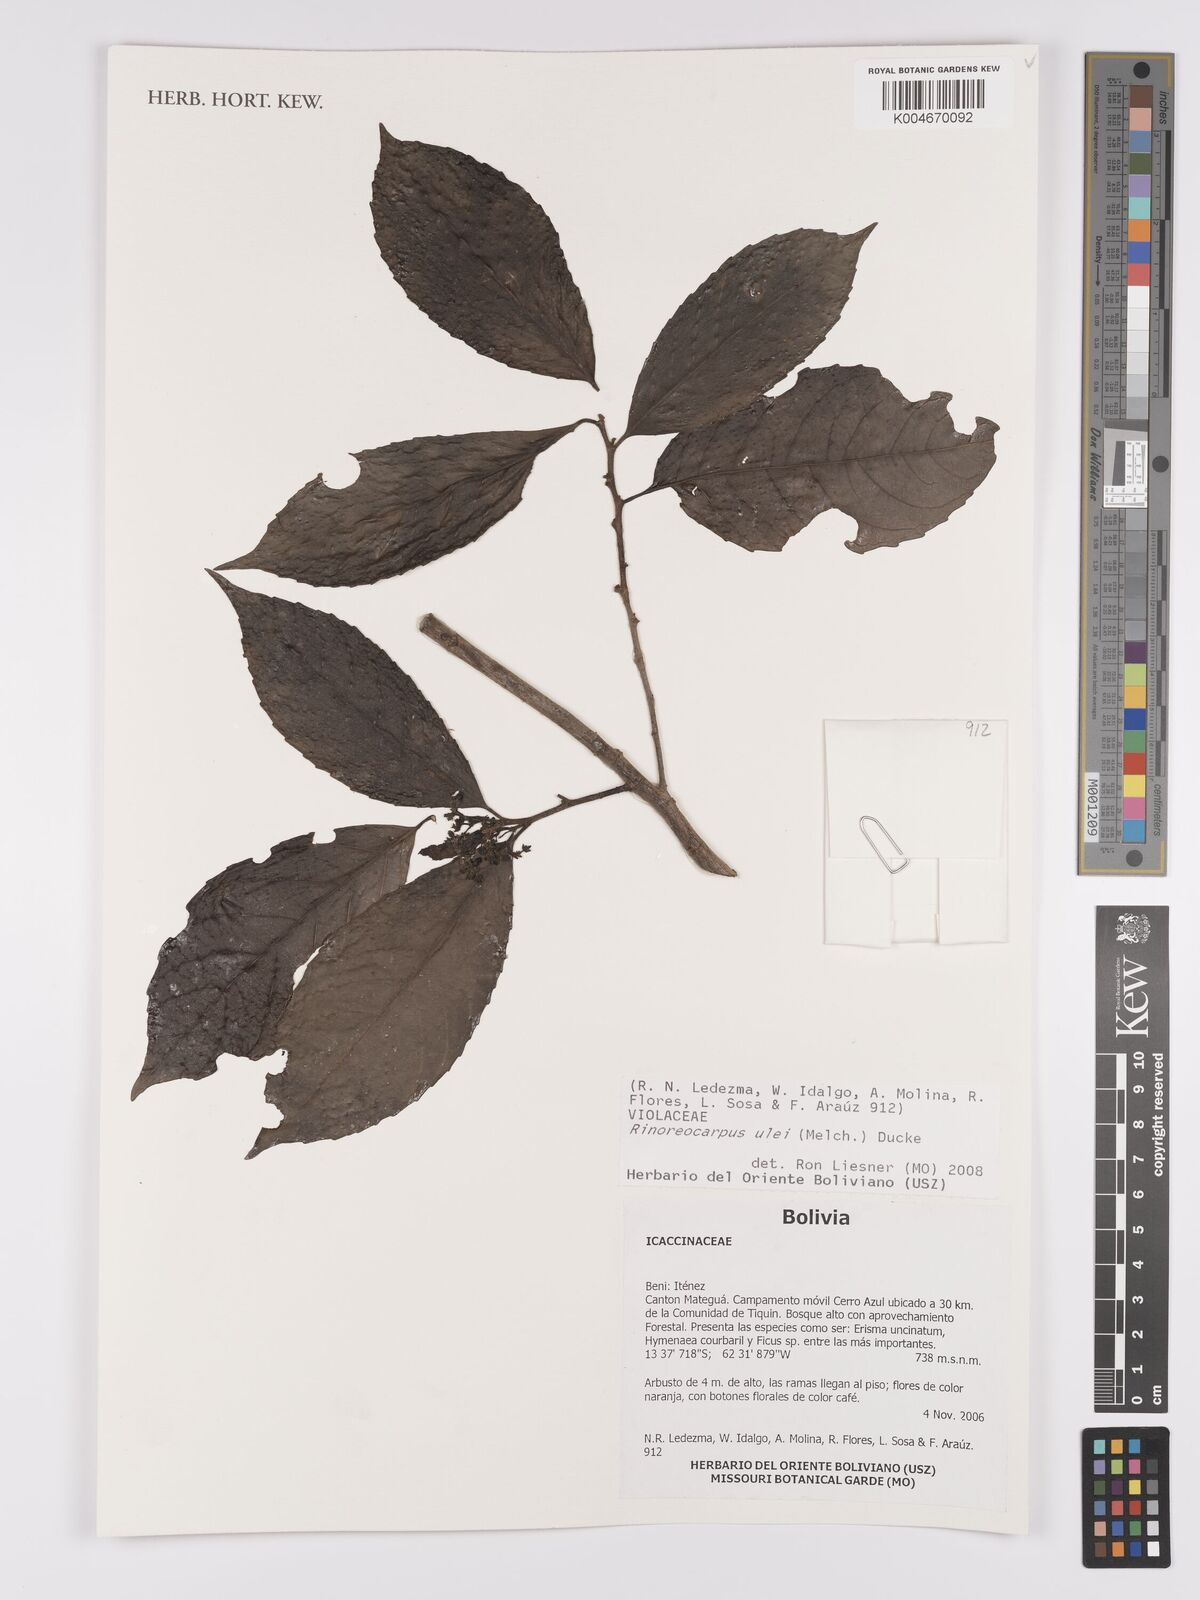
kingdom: Plantae
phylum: Tracheophyta
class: Magnoliopsida
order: Malpighiales
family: Violaceae
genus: Rinoreocarpus
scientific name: Rinoreocarpus ulei
